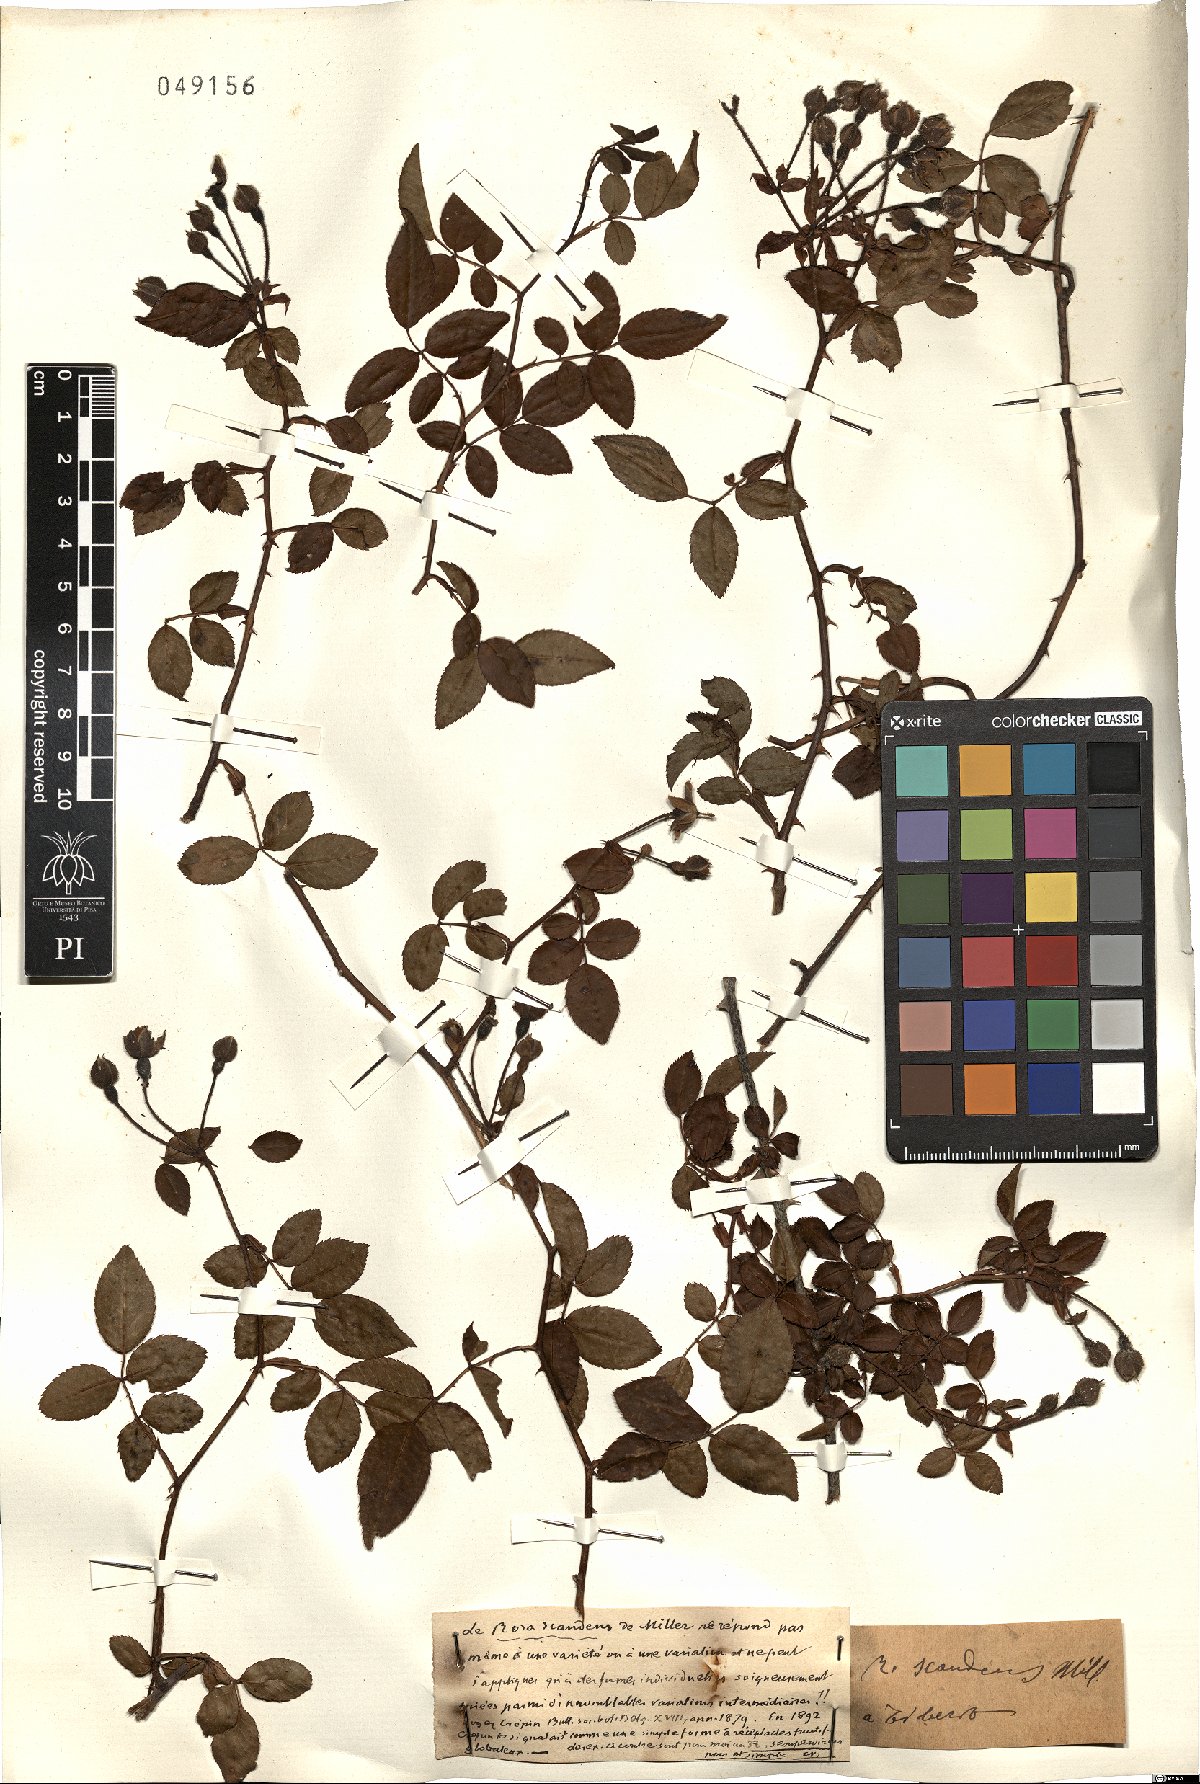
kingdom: Plantae
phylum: Tracheophyta
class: Magnoliopsida
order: Rosales
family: Rosaceae
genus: Rosa
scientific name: Rosa sempervirens
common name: Evergreen rose
